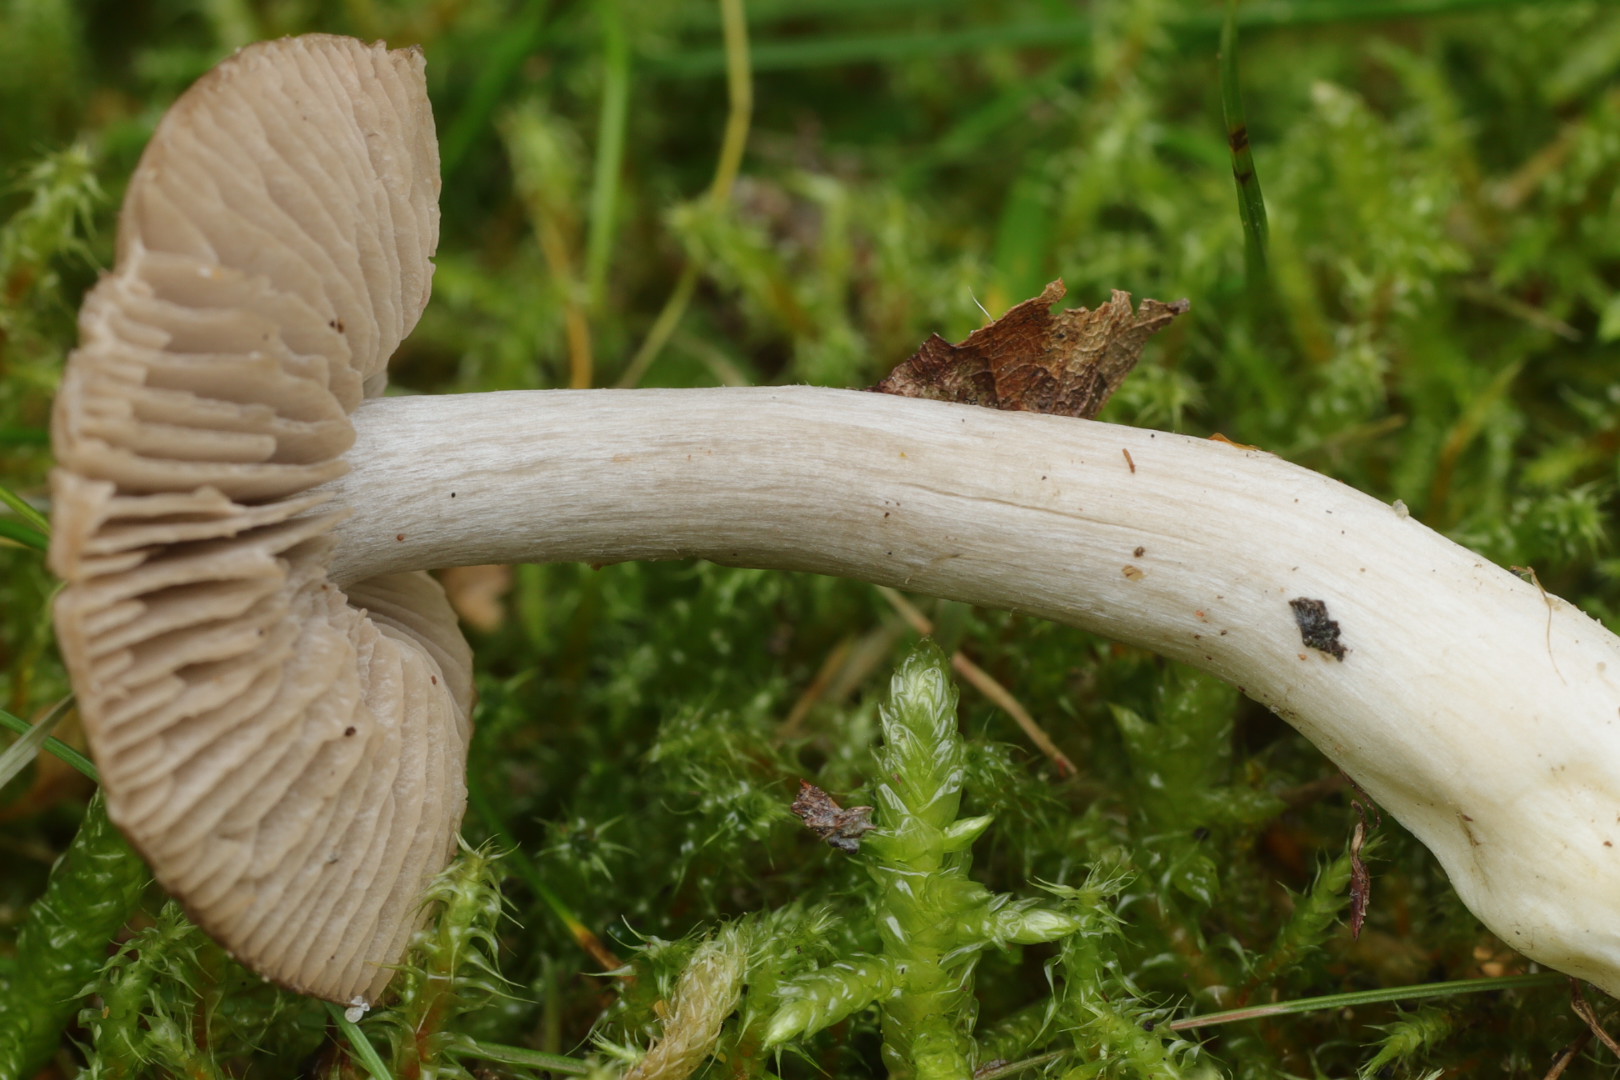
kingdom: Fungi
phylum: Basidiomycota
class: Agaricomycetes
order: Agaricales
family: Entolomataceae
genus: Entocybe
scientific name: Entocybe turbida
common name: plantage-rødblad
